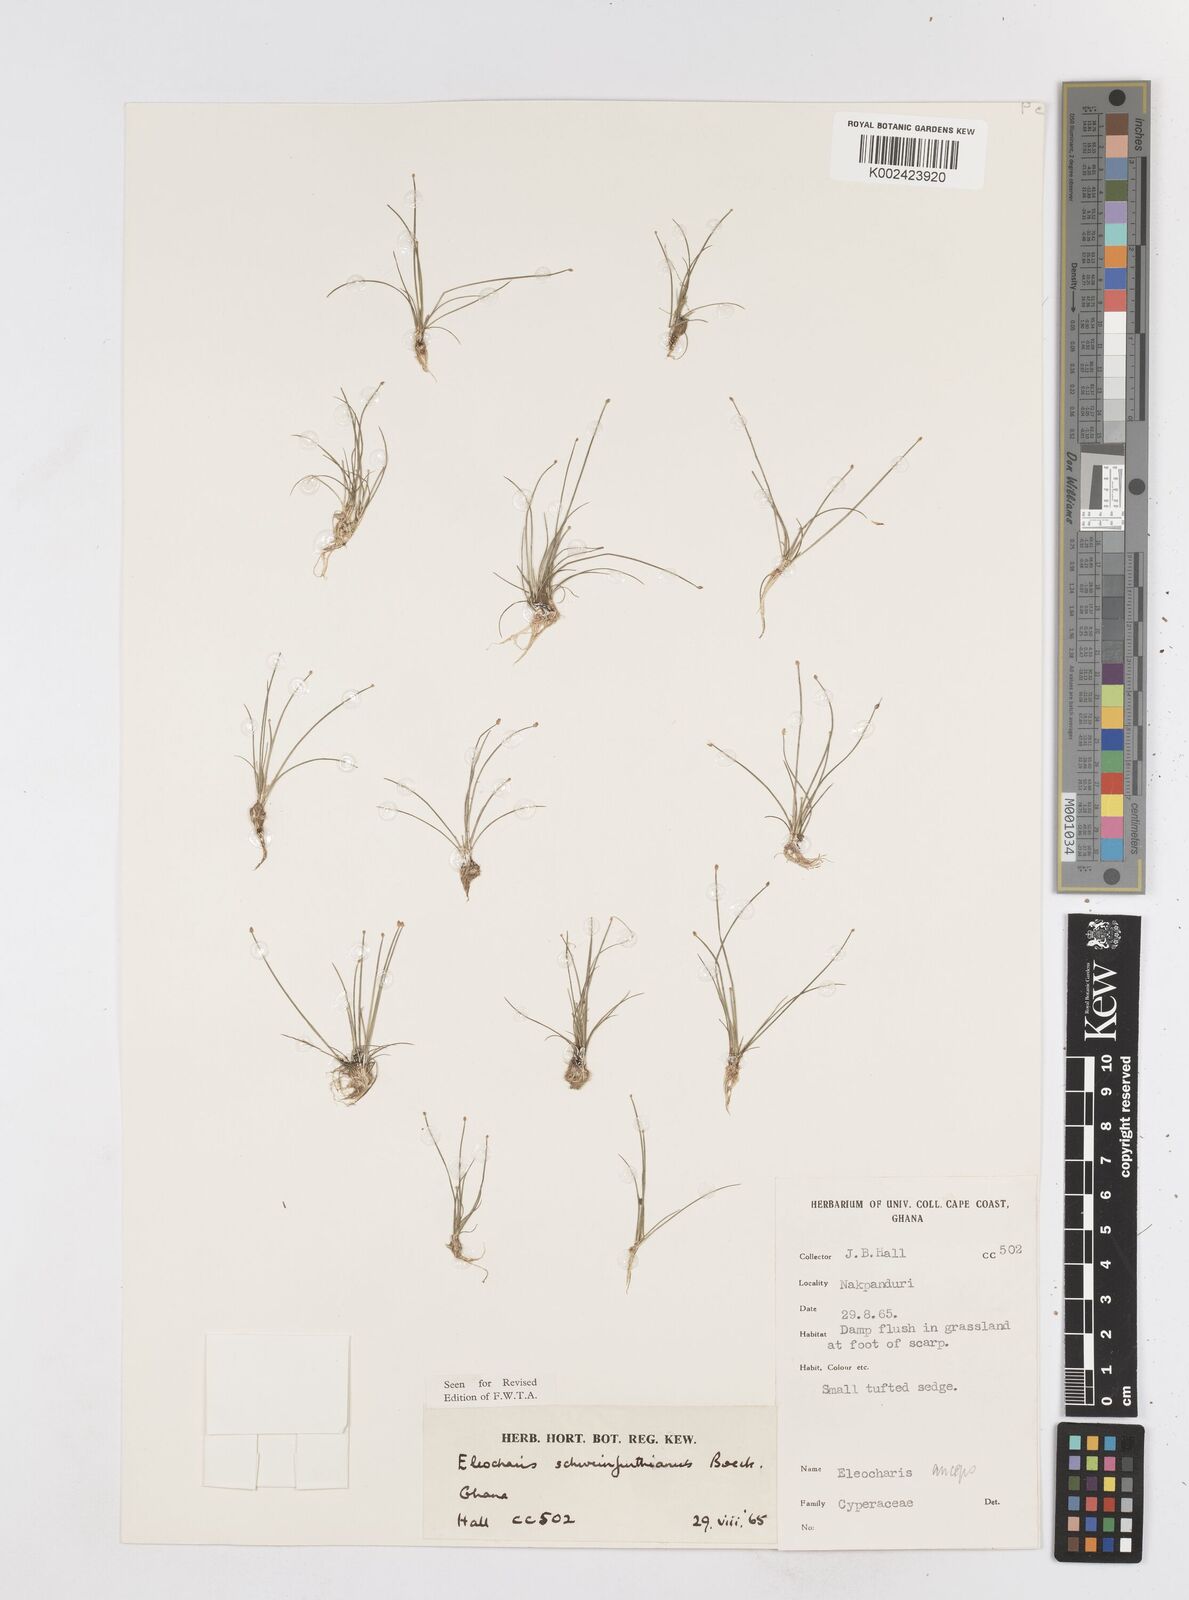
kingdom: Plantae
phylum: Tracheophyta
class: Liliopsida
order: Poales
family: Cyperaceae
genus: Eleocharis
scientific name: Eleocharis setifolia
